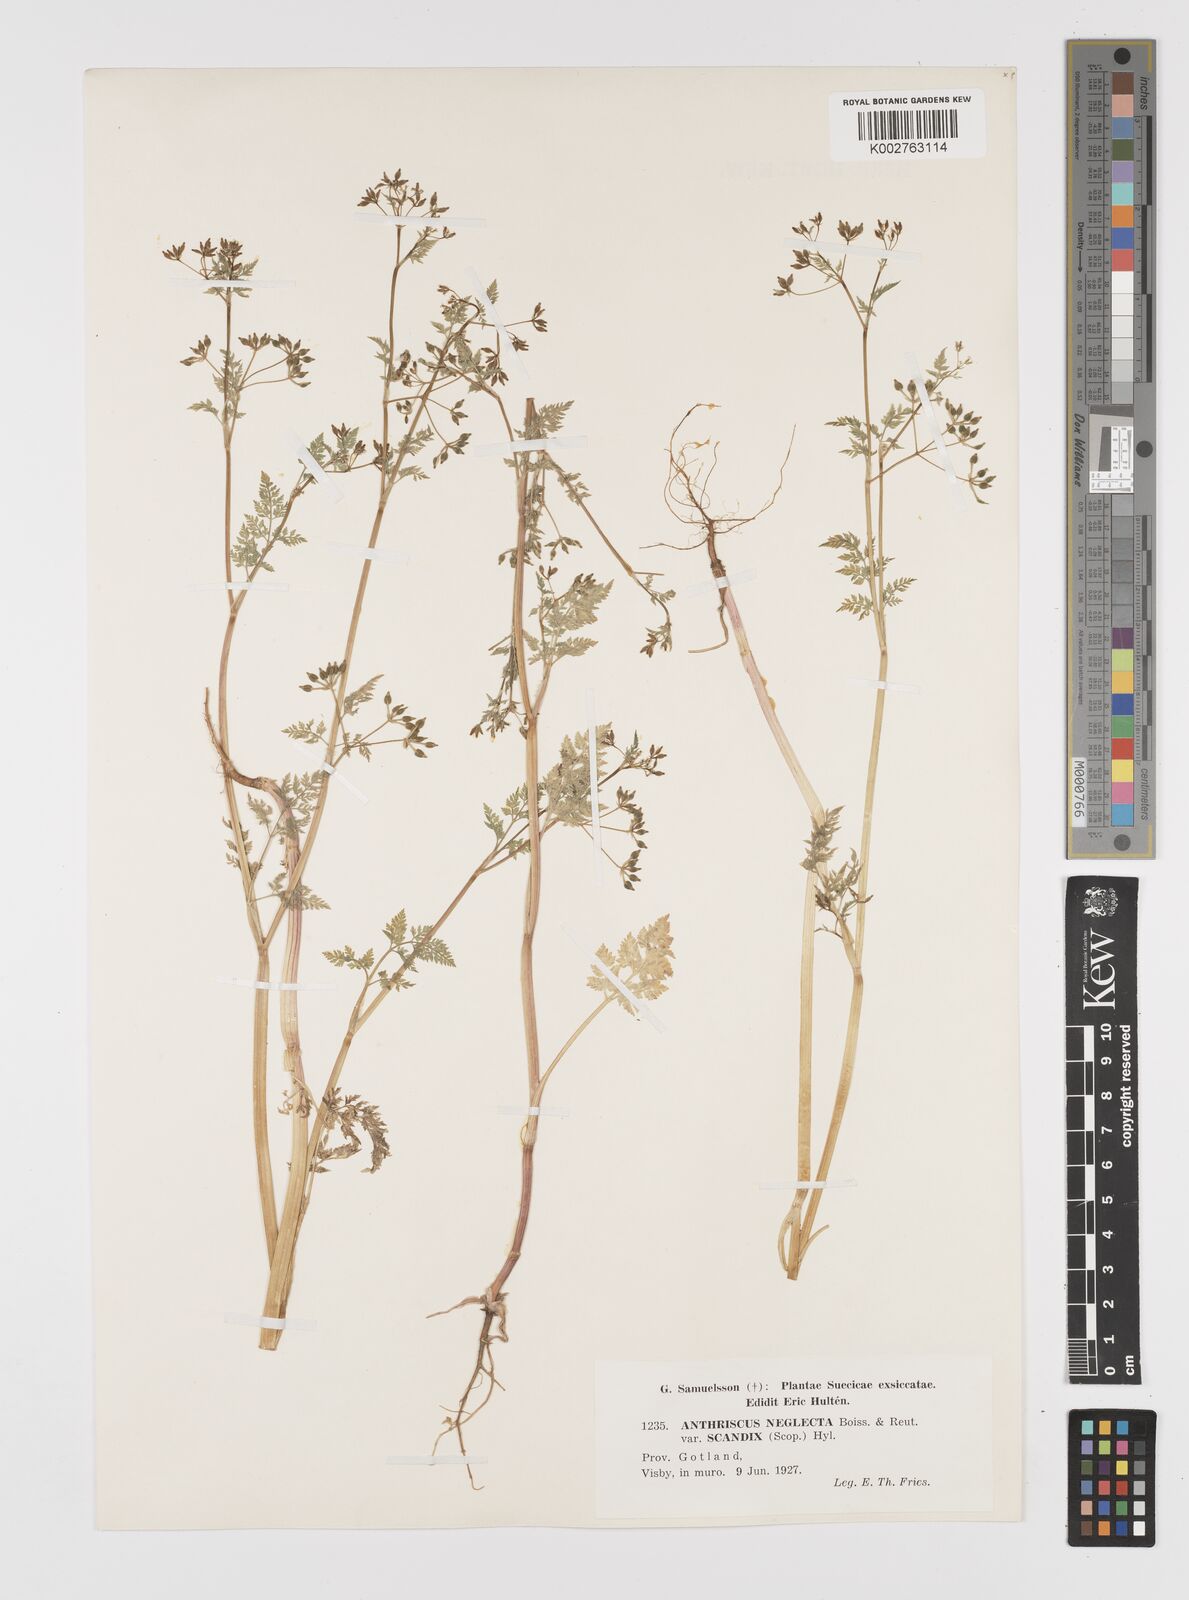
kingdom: Plantae
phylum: Tracheophyta
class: Magnoliopsida
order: Apiales
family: Apiaceae
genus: Anthriscus
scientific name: Anthriscus caucalis
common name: Bur chervil
